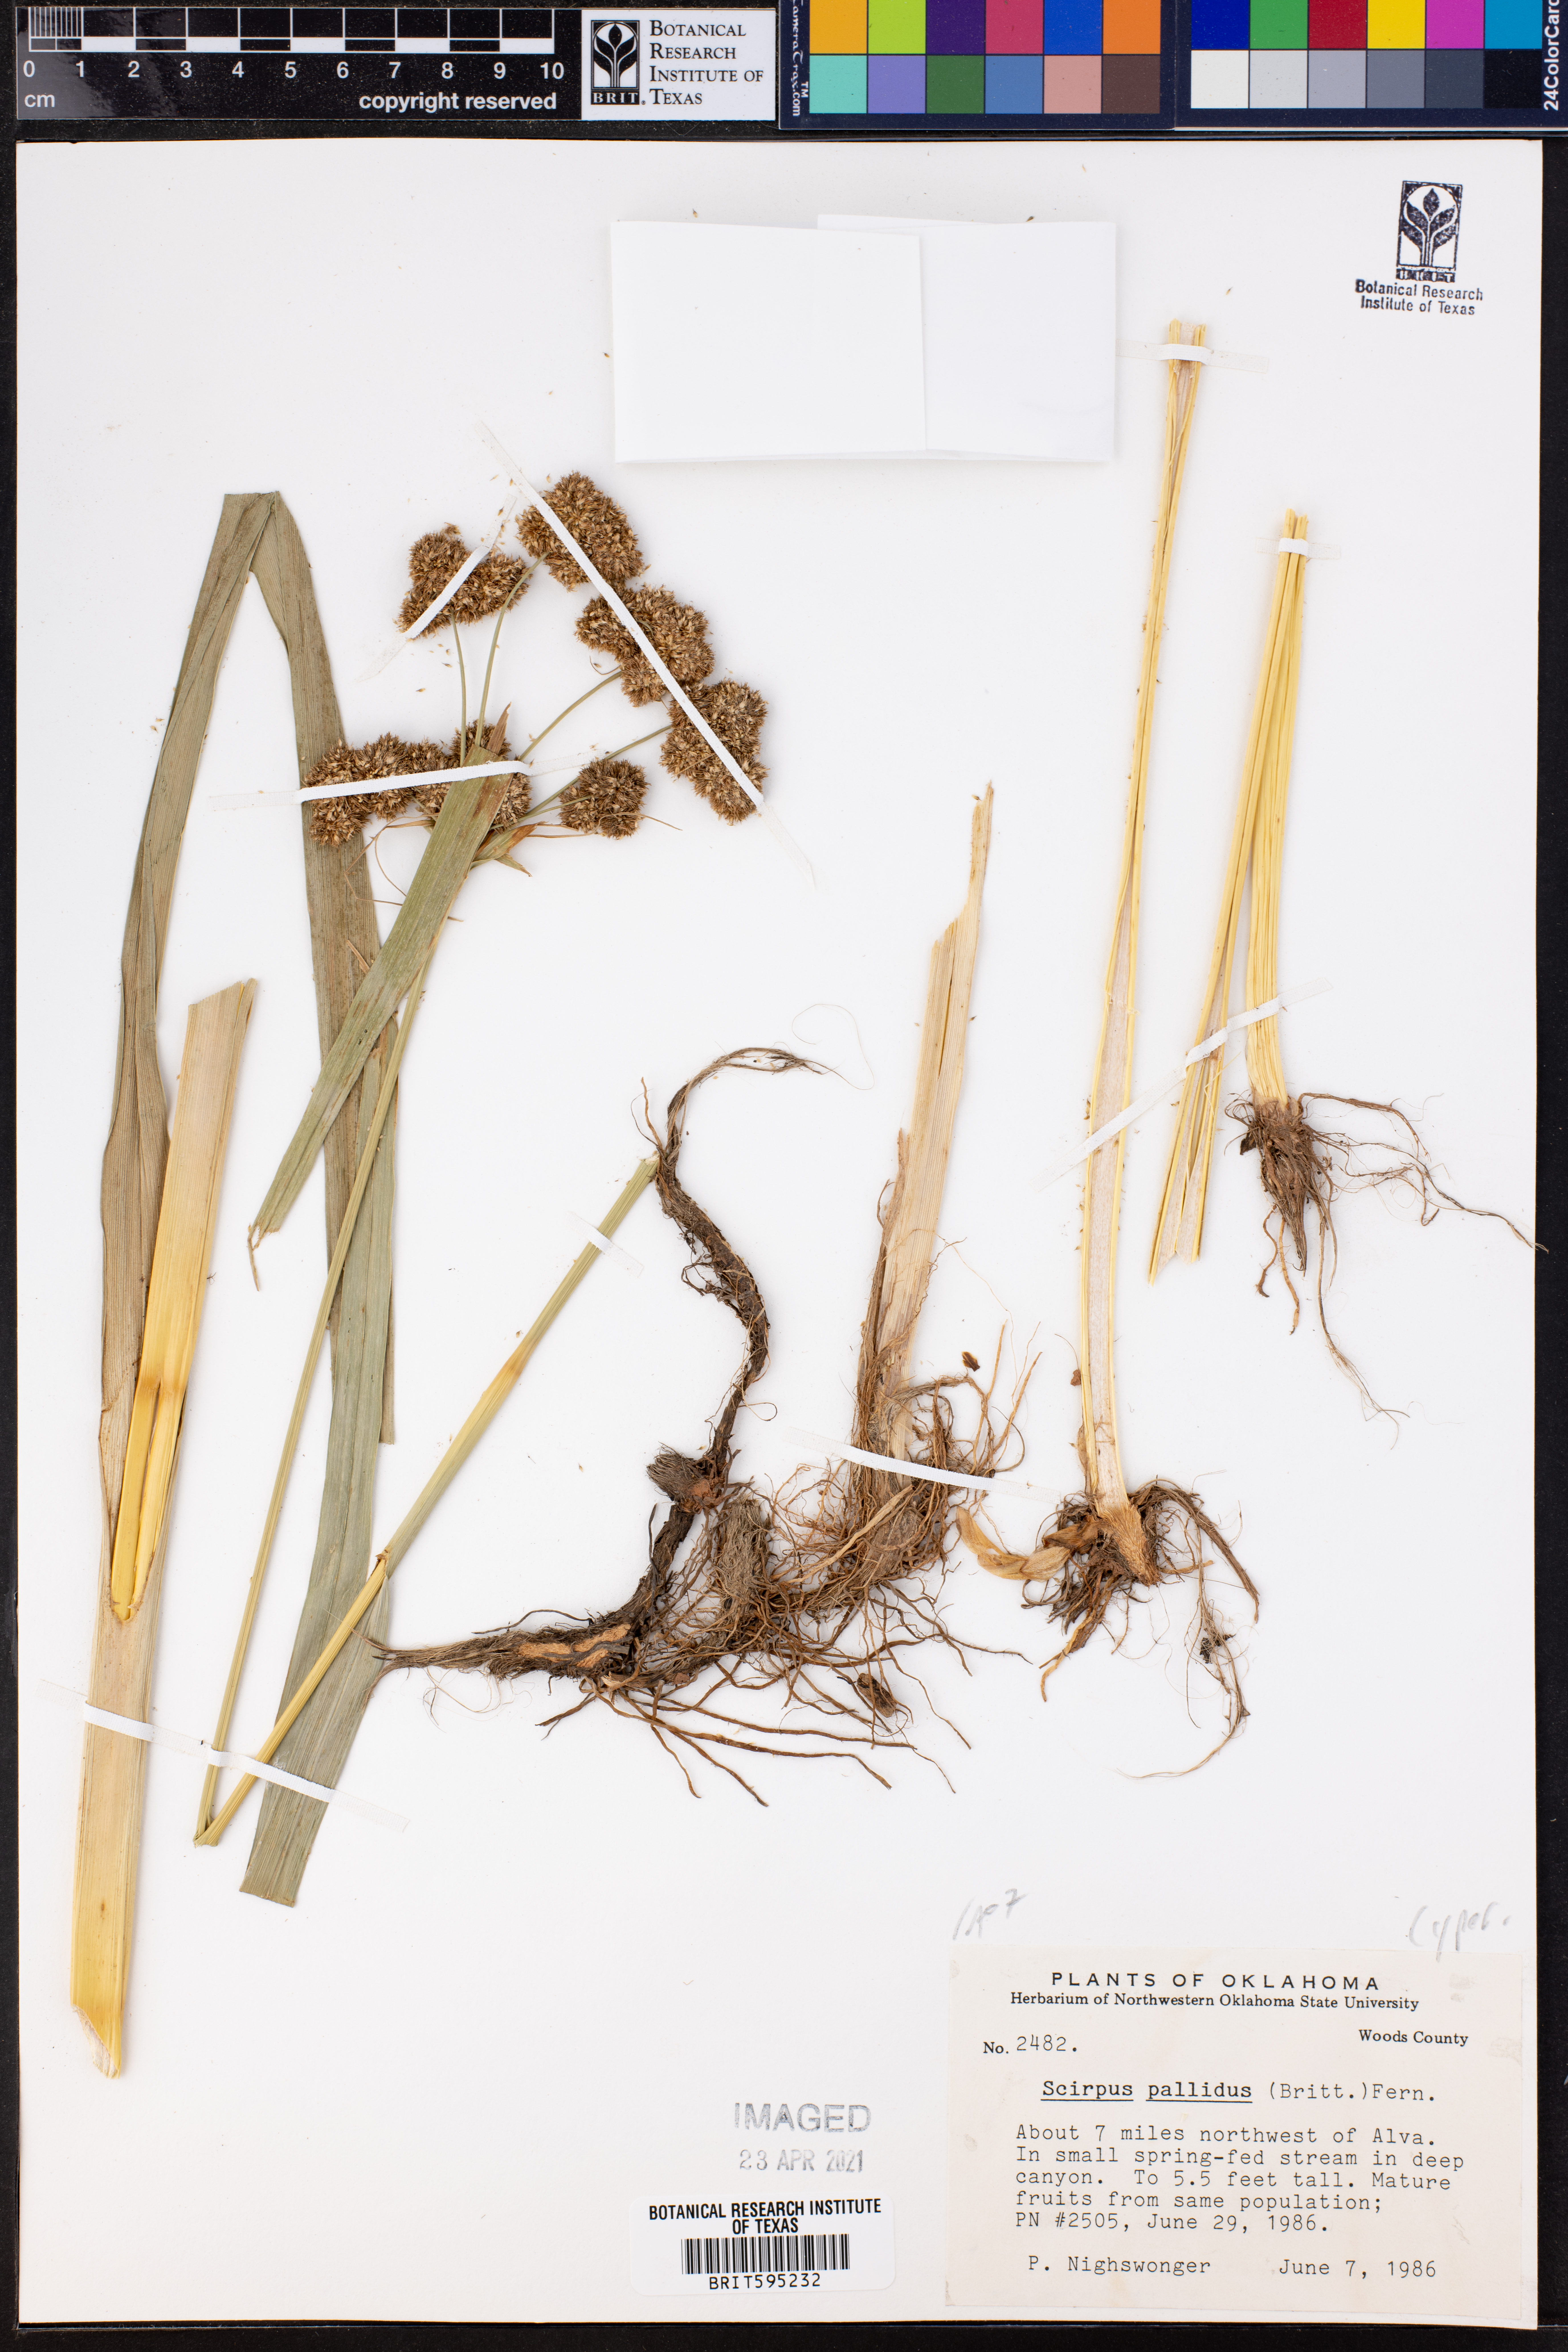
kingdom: Plantae
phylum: Tracheophyta
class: Liliopsida
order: Poales
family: Cyperaceae
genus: Scirpus
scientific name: Scirpus pallidus
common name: Cloaked bulrush
